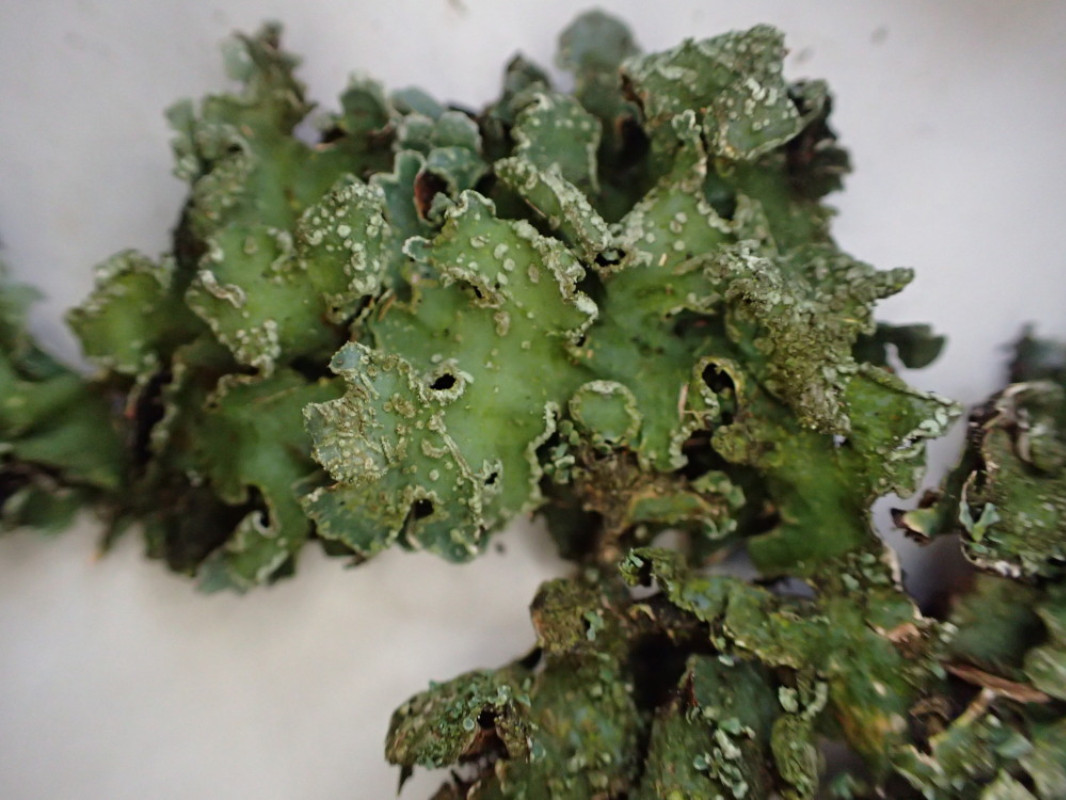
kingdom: Fungi
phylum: Ascomycota
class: Lecanoromycetes
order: Lecanorales
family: Parmeliaceae
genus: Parmelia
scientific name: Parmelia sulcata
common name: rynket skållav
